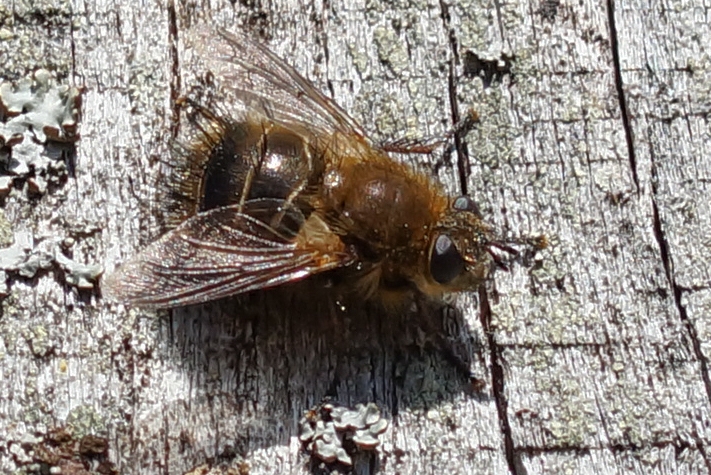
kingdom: Animalia
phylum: Arthropoda
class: Insecta
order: Diptera
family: Tachinidae
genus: Tachina
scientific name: Tachina ursina
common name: Bjørnesnylteflue
